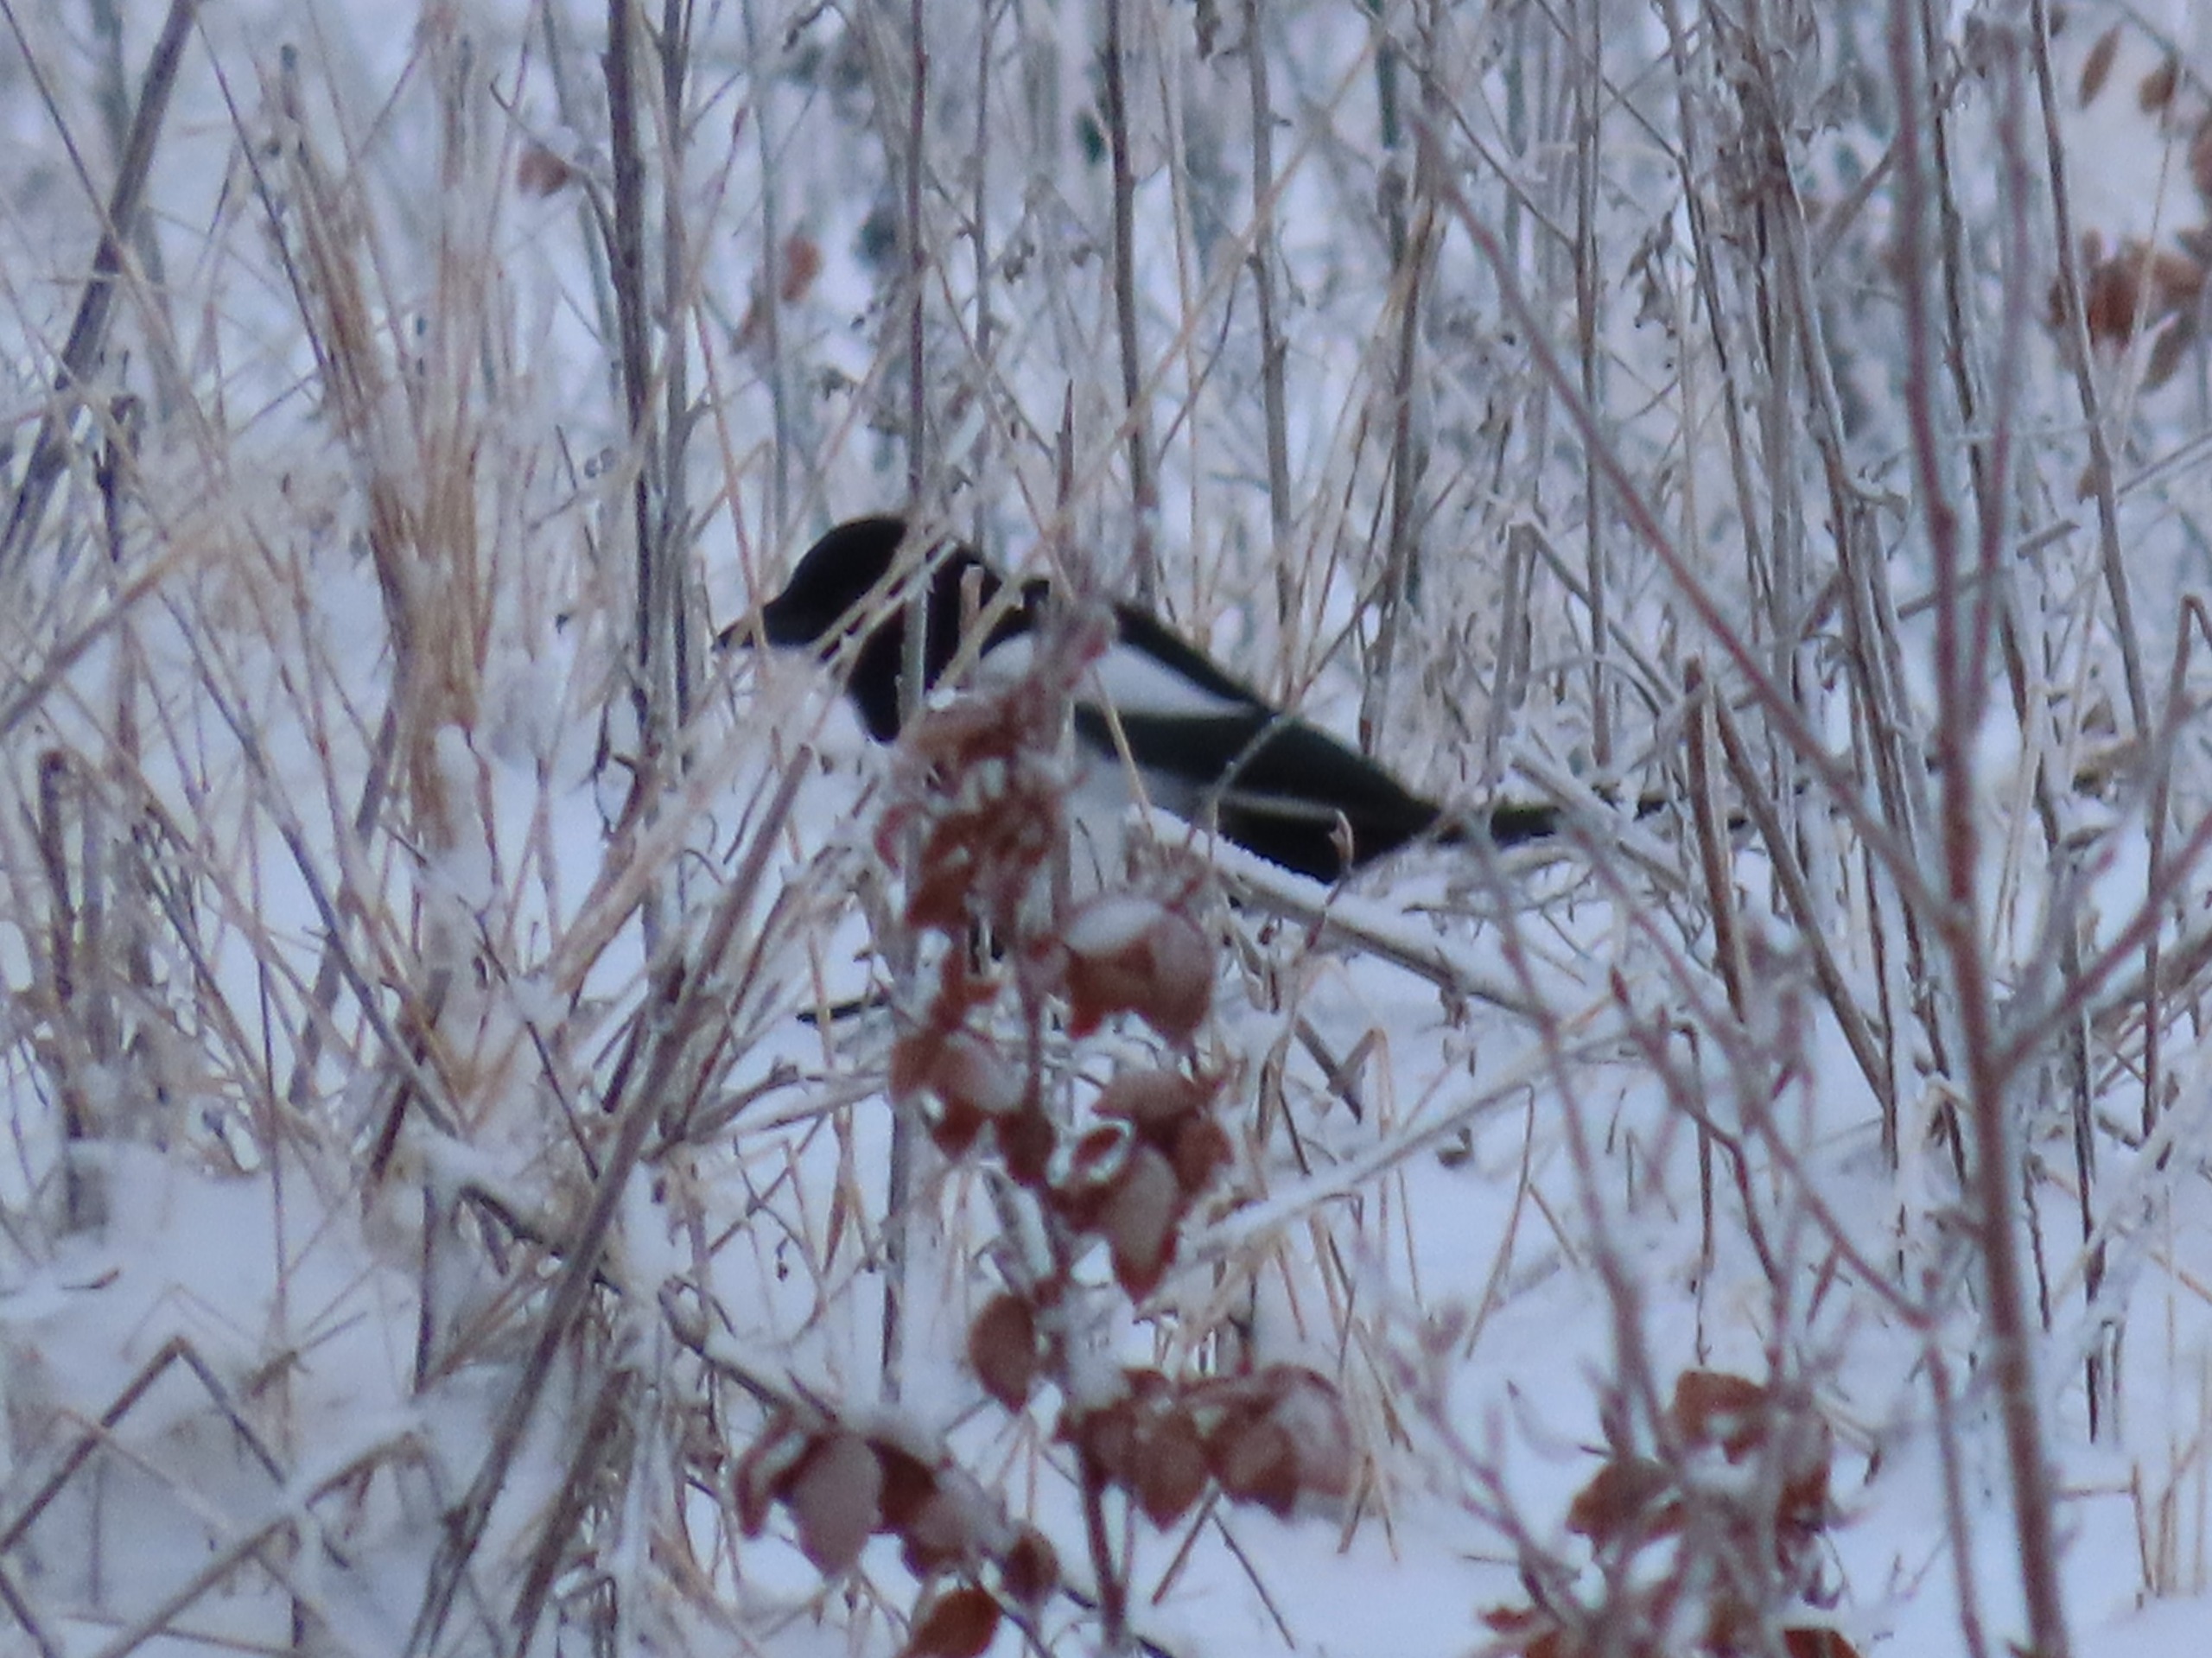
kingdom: Animalia
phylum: Chordata
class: Aves
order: Passeriformes
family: Corvidae
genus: Pica
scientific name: Pica pica
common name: Husskade
